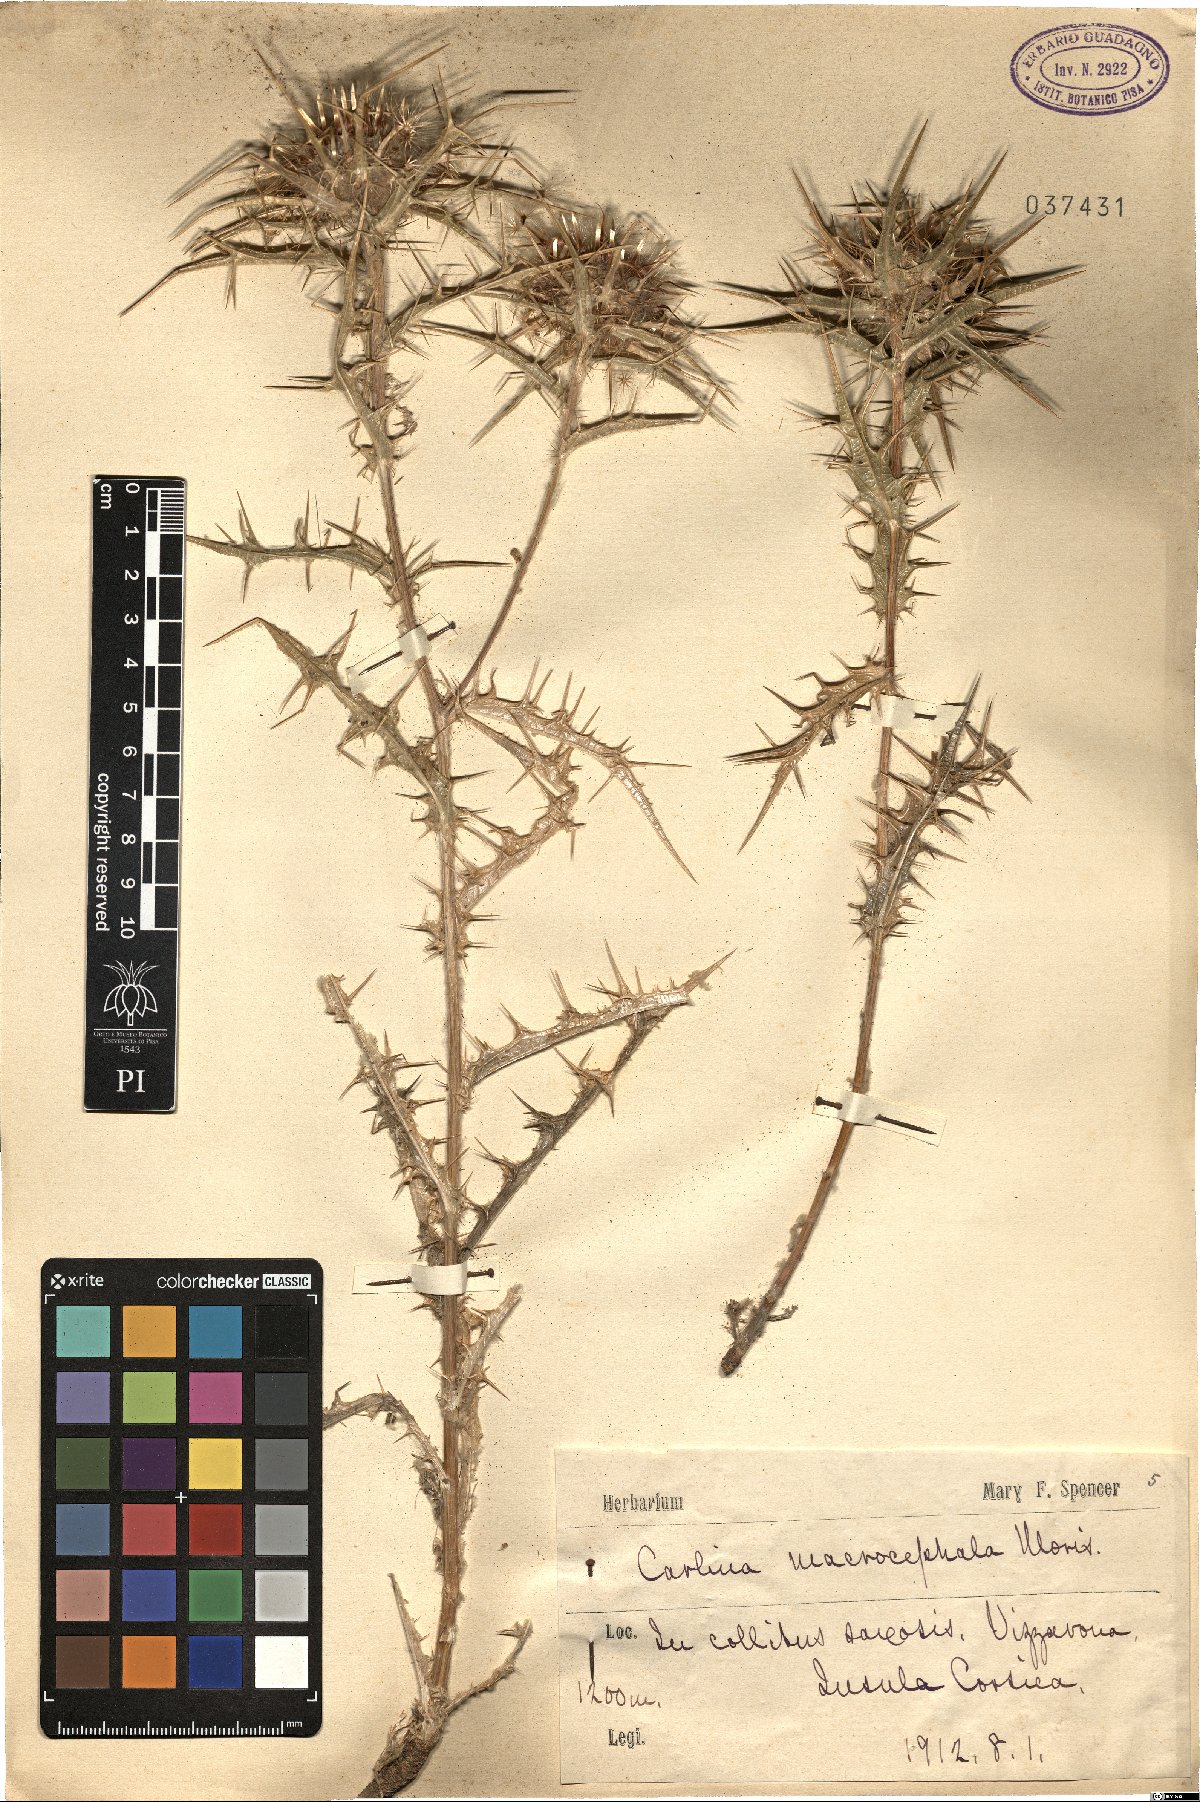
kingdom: Plantae
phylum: Tracheophyta
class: Magnoliopsida
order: Asterales
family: Asteraceae
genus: Chamaeleon
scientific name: Chamaeleon macrocephalus
